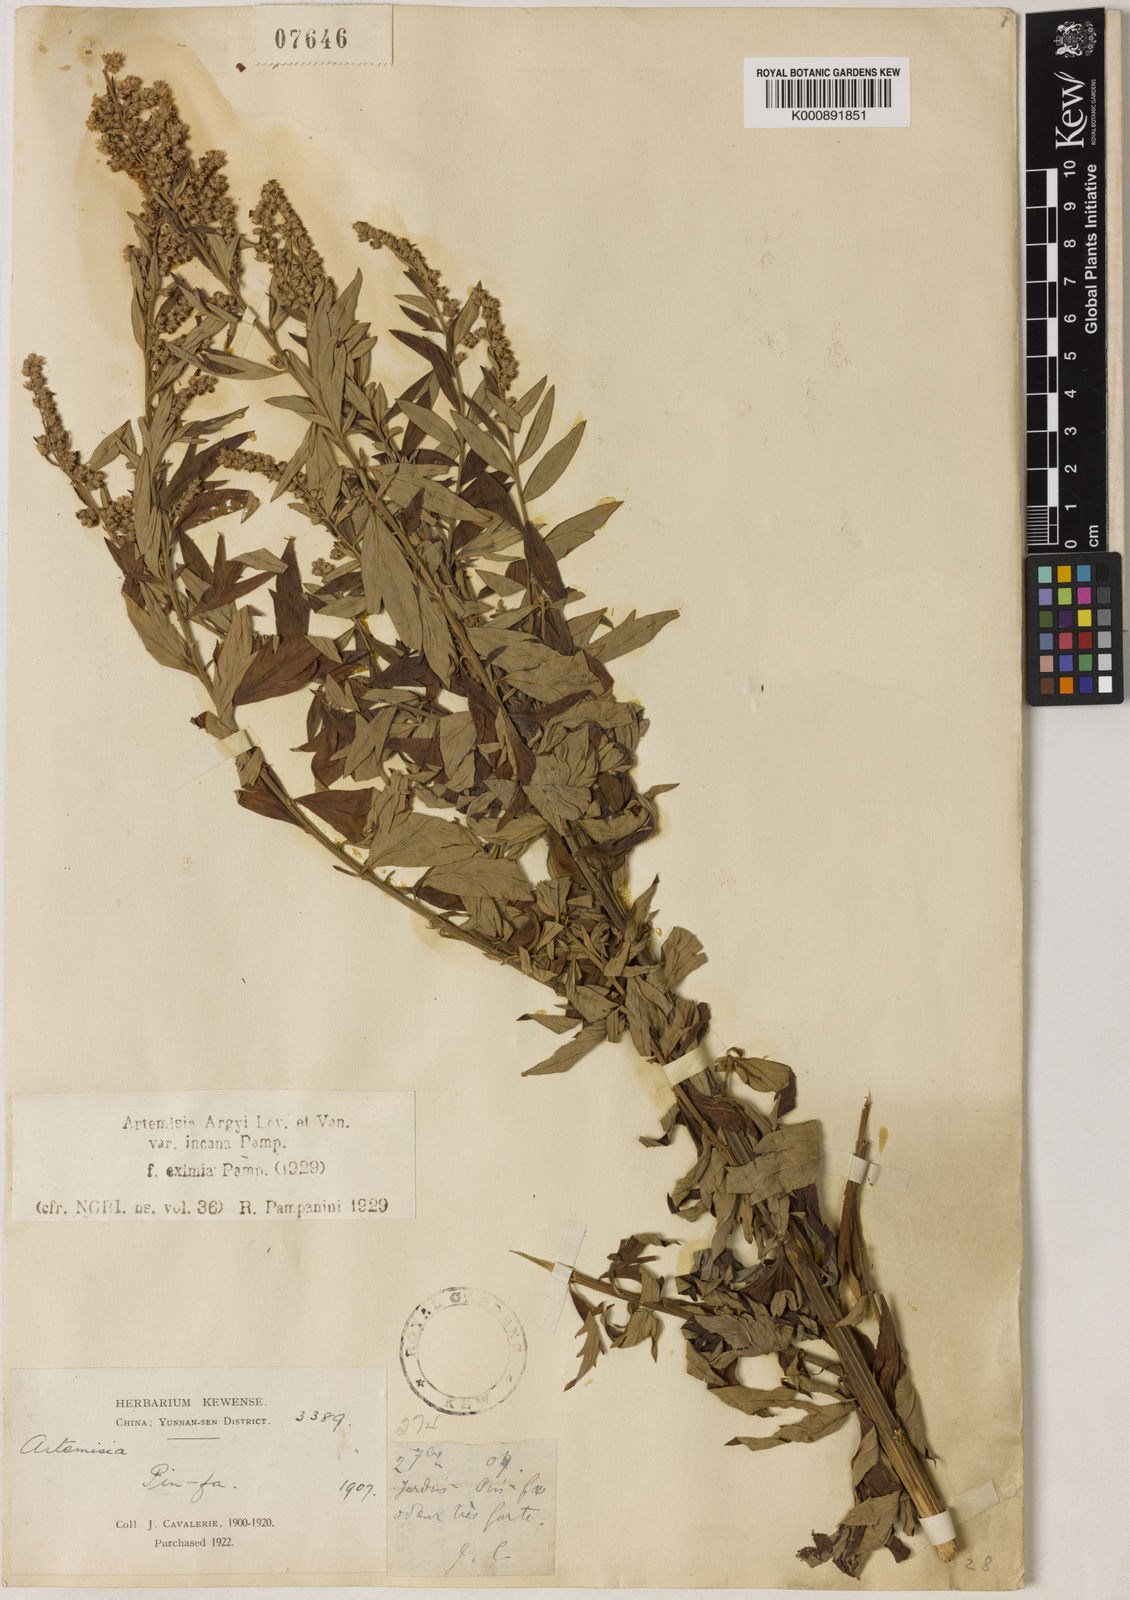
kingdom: Plantae
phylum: Tracheophyta
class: Magnoliopsida
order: Asterales
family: Asteraceae
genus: Artemisia
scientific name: Artemisia
